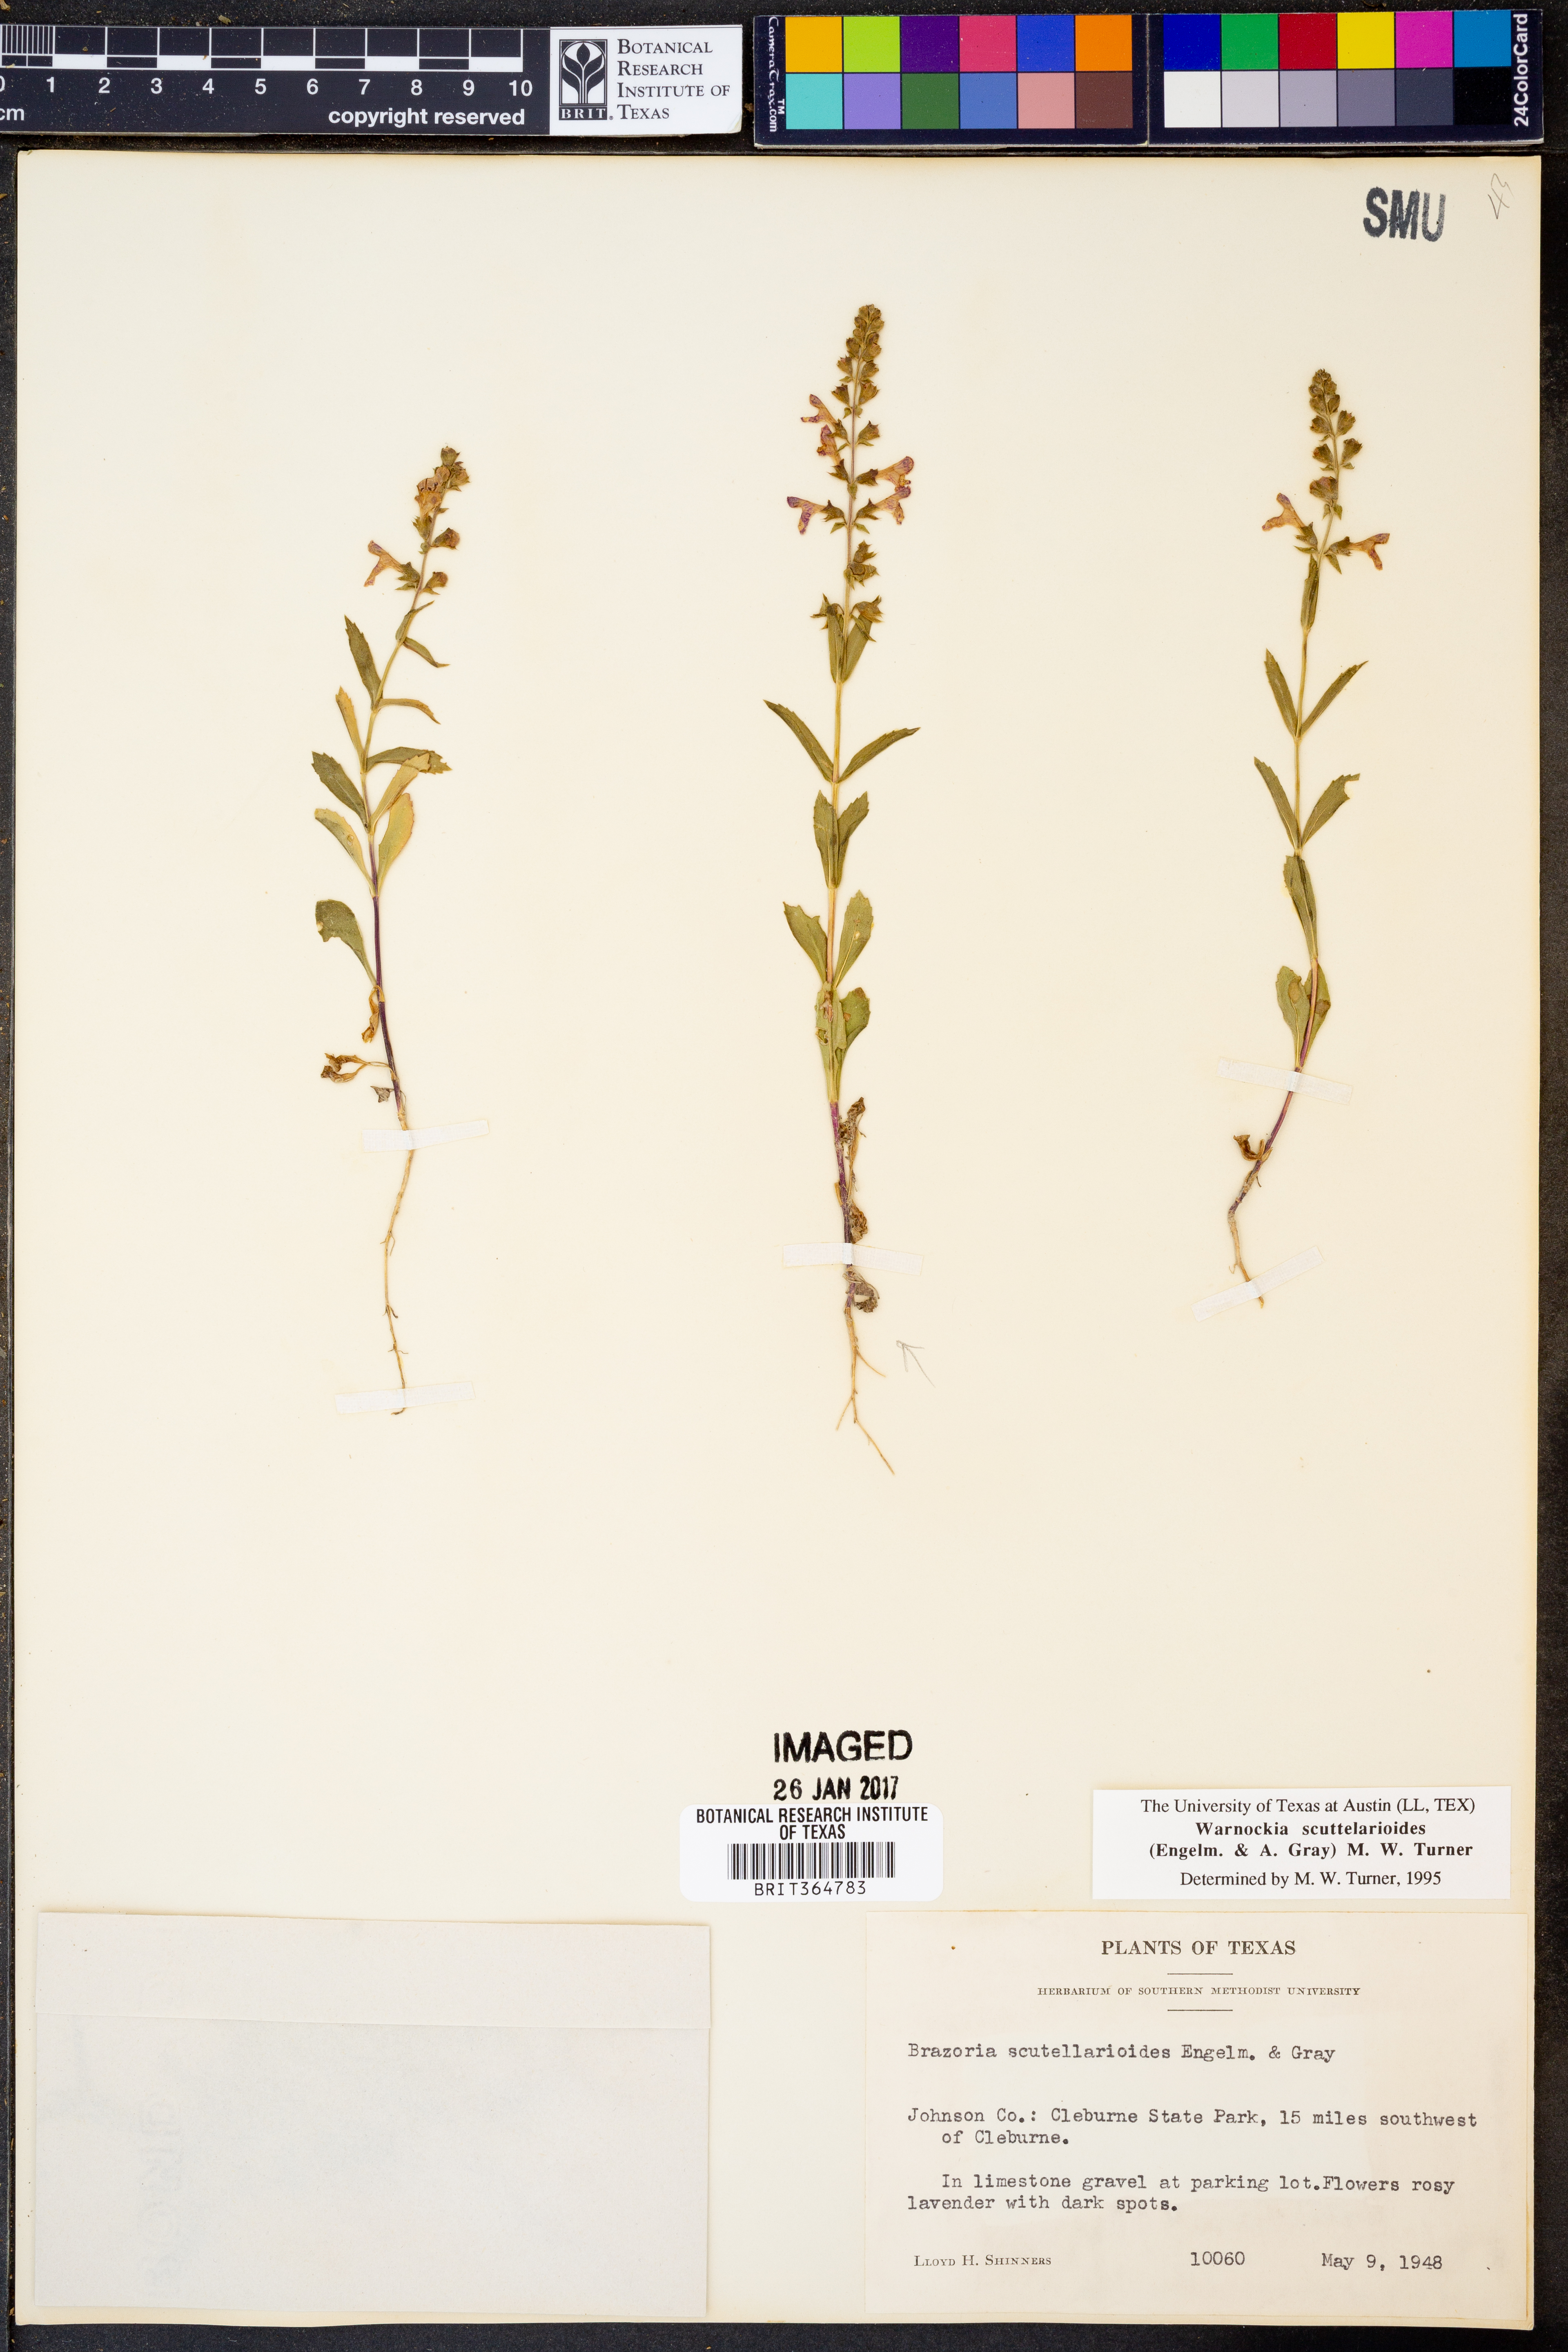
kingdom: Plantae
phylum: Tracheophyta
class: Magnoliopsida
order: Lamiales
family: Lamiaceae
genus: Warnockia
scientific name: Warnockia scutellarioides
